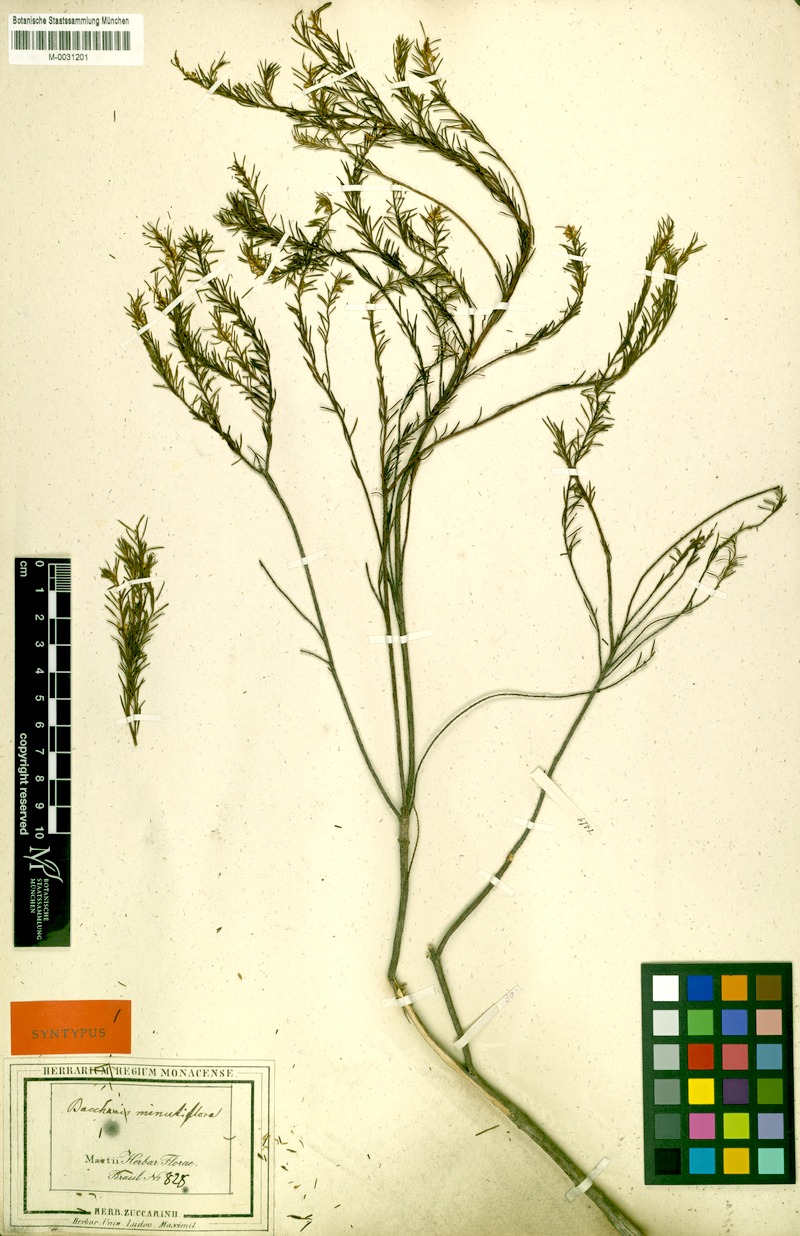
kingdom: Plantae
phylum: Tracheophyta
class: Magnoliopsida
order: Asterales
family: Asteraceae
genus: Baccharis
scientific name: Baccharis minutiflora
